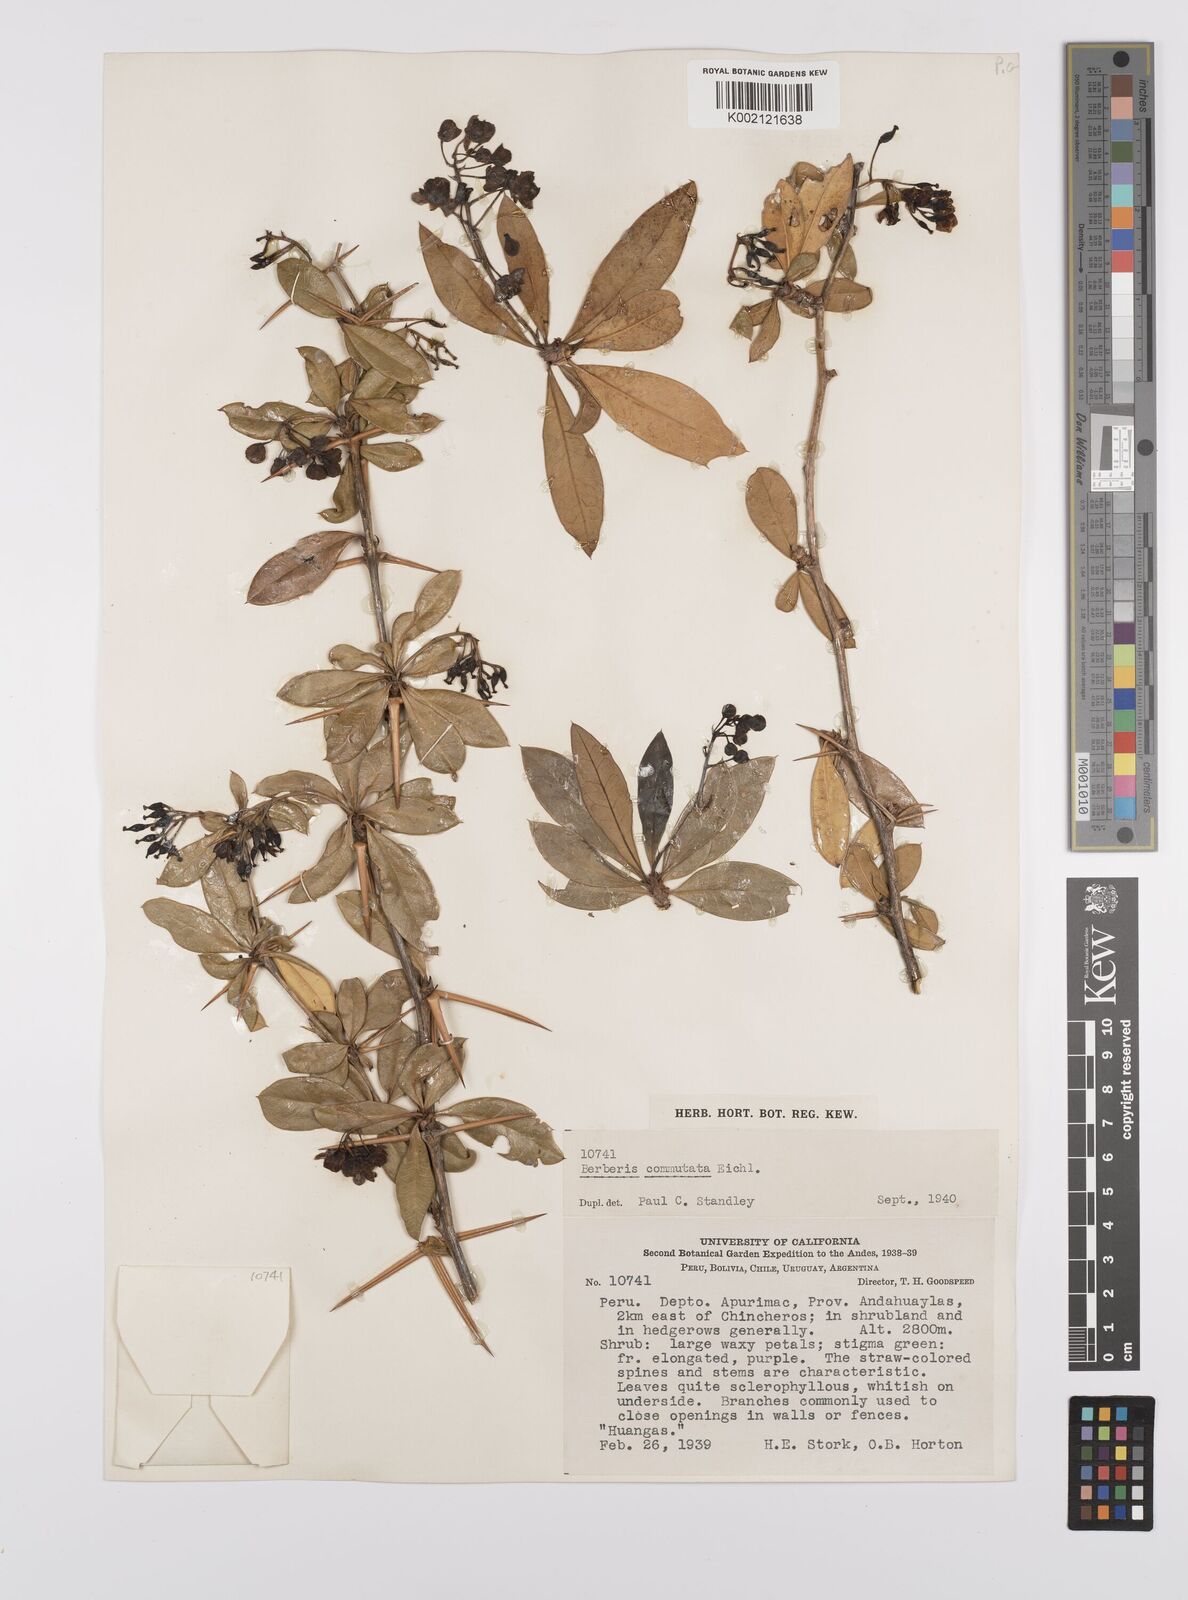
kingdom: Plantae
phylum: Tracheophyta
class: Magnoliopsida
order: Ranunculales
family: Berberidaceae
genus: Berberis
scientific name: Berberis commutata
